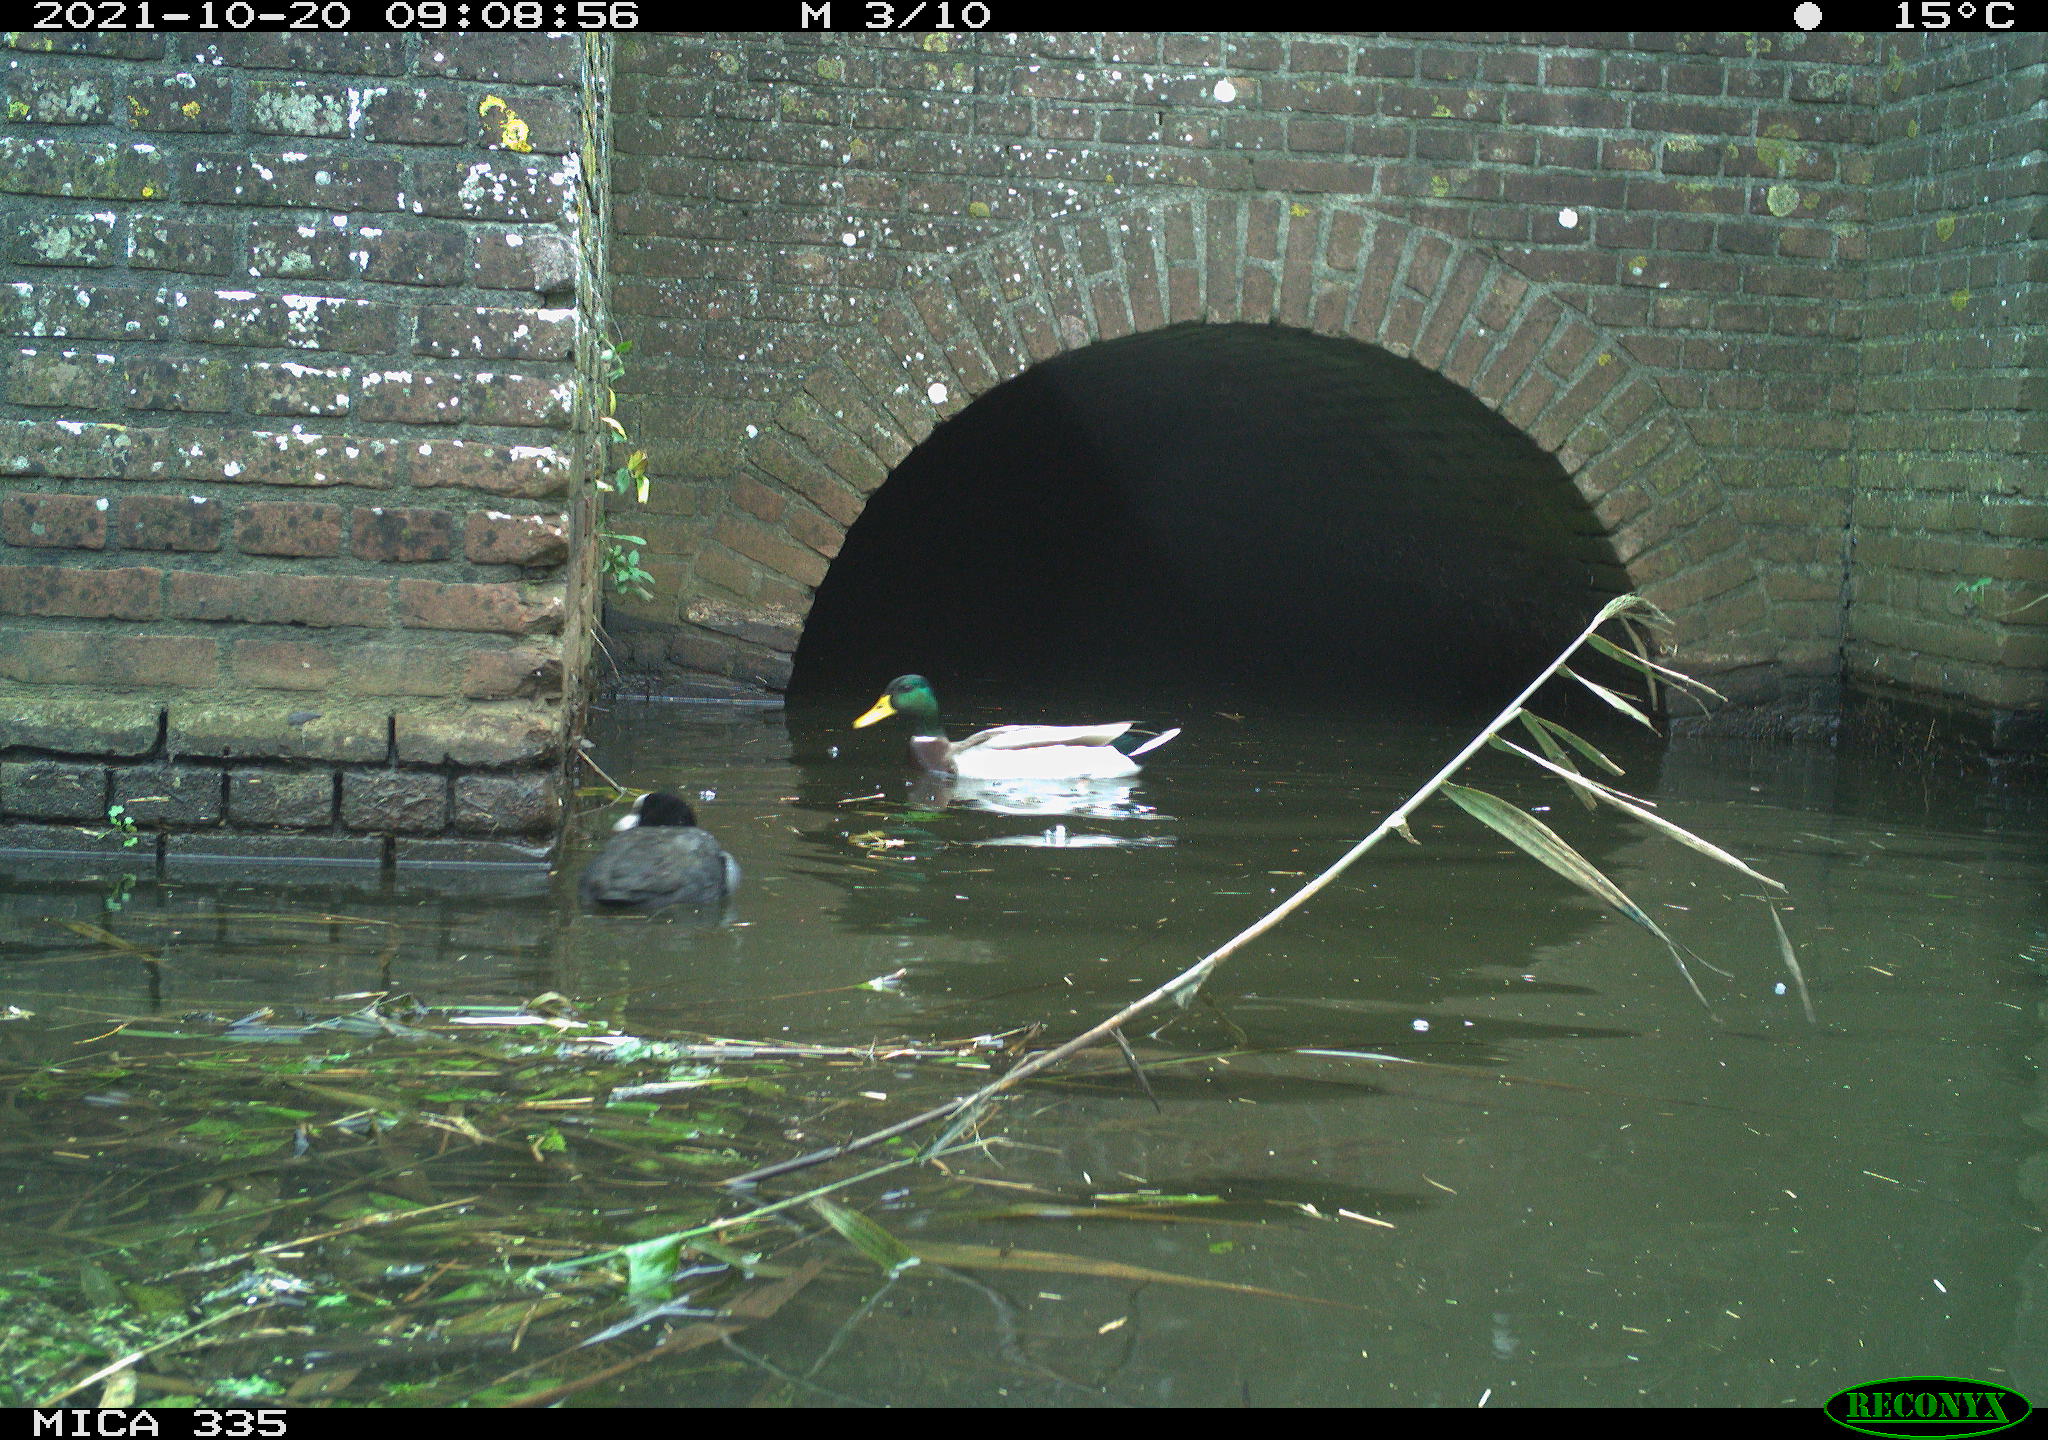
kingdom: Animalia
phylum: Chordata
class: Aves
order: Gruiformes
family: Rallidae
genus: Fulica
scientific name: Fulica atra
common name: Eurasian coot
